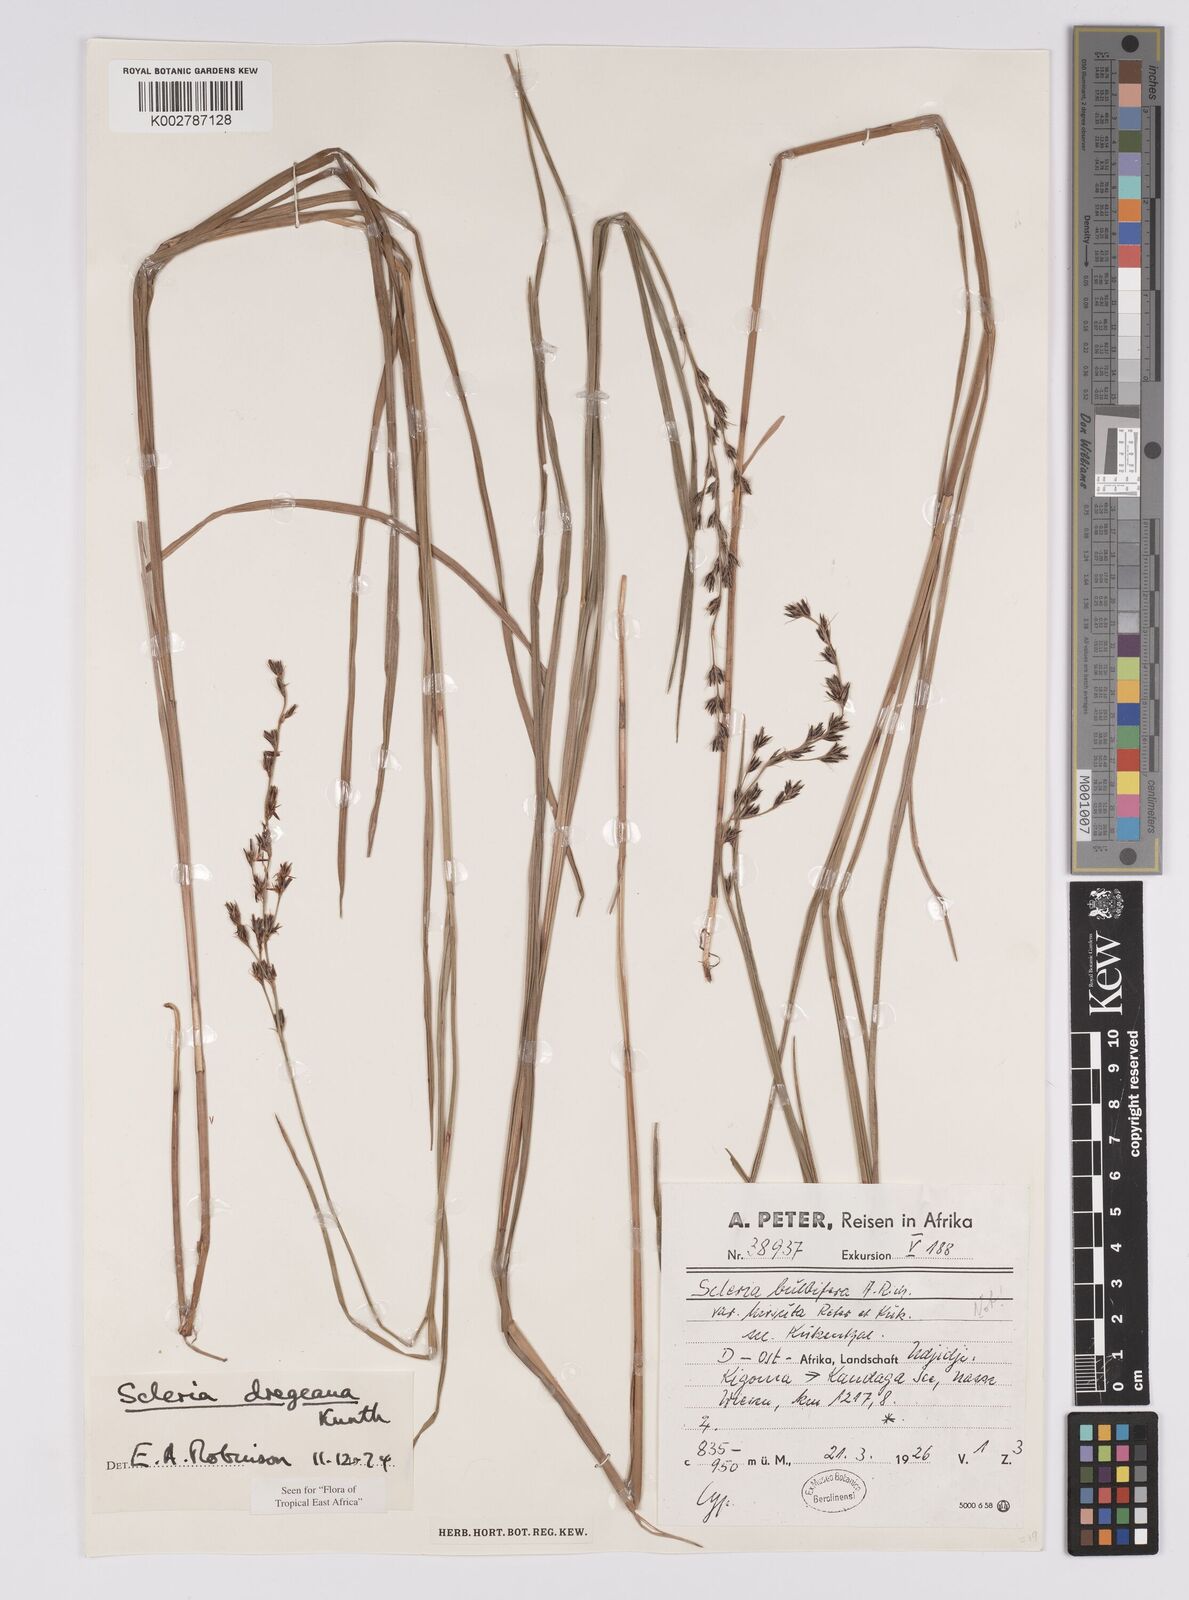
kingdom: Plantae
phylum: Tracheophyta
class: Liliopsida
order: Poales
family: Cyperaceae
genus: Scleria
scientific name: Scleria dregeana
